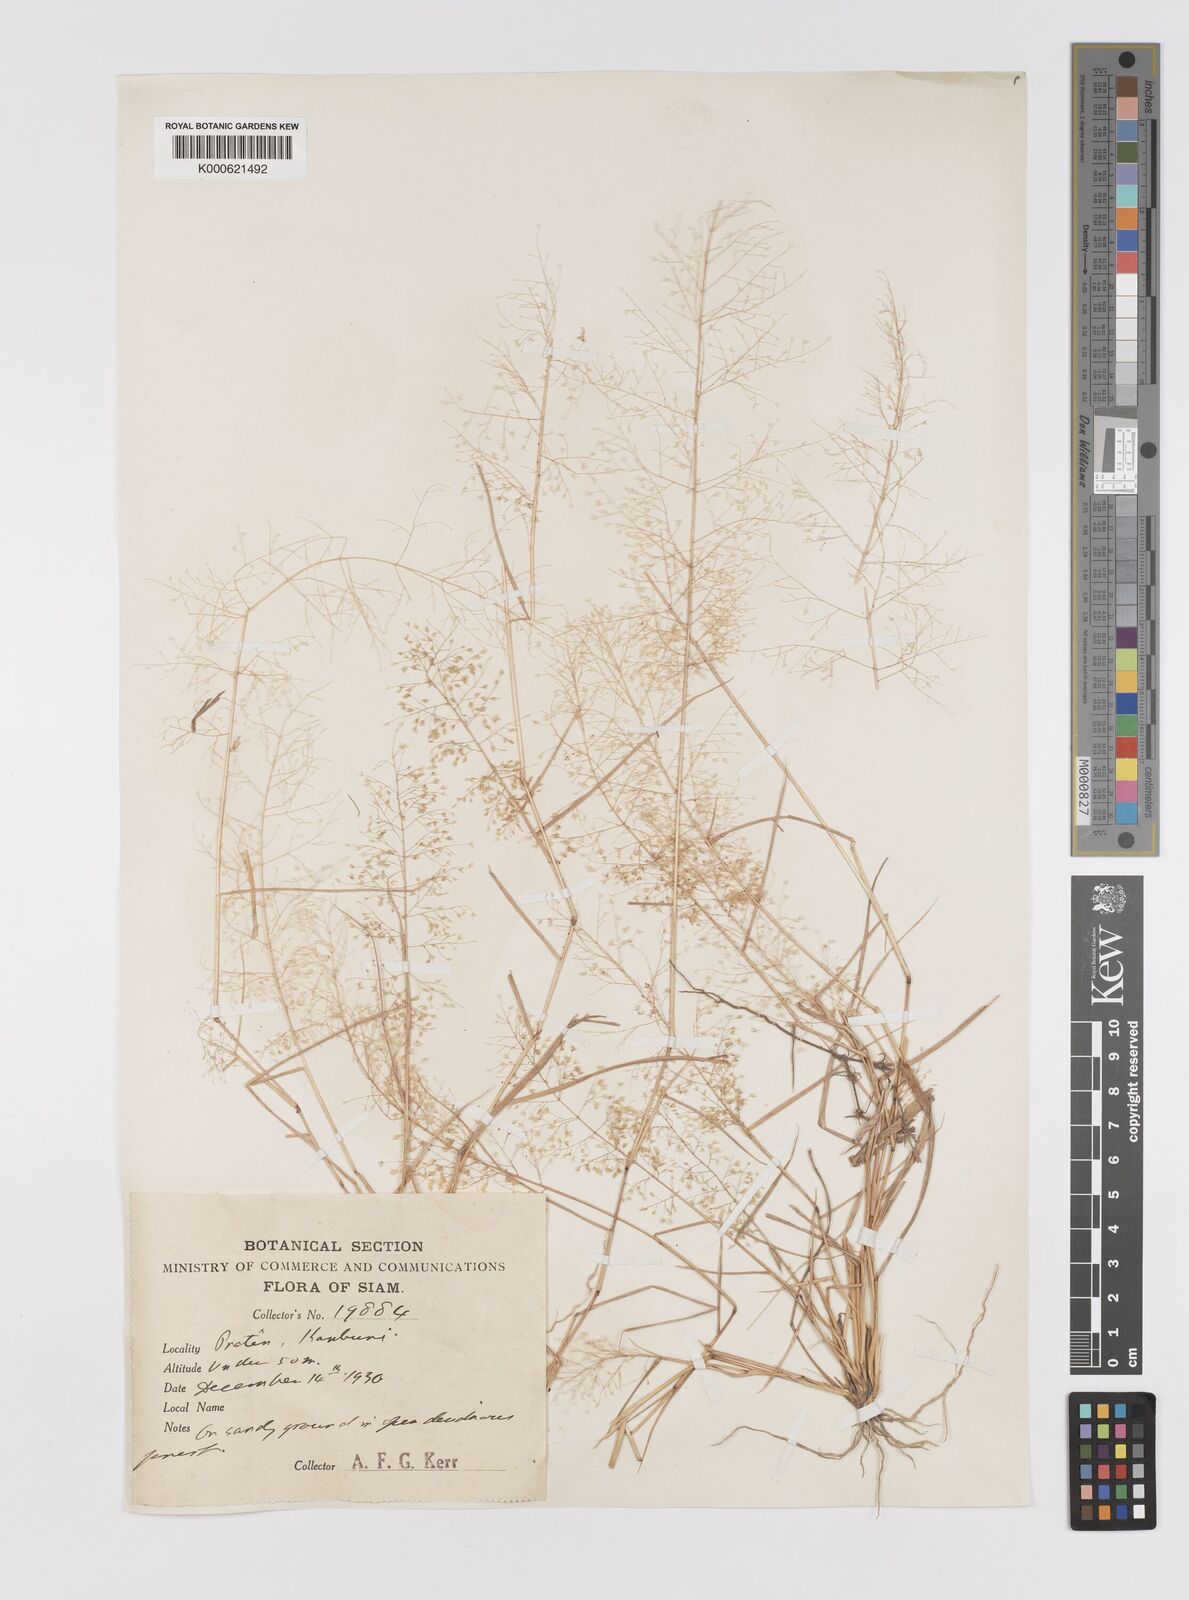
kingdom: Plantae
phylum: Tracheophyta
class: Liliopsida
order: Poales
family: Poaceae
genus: Eragrostis
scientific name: Eragrostis tenella
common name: Japanese lovegrass
